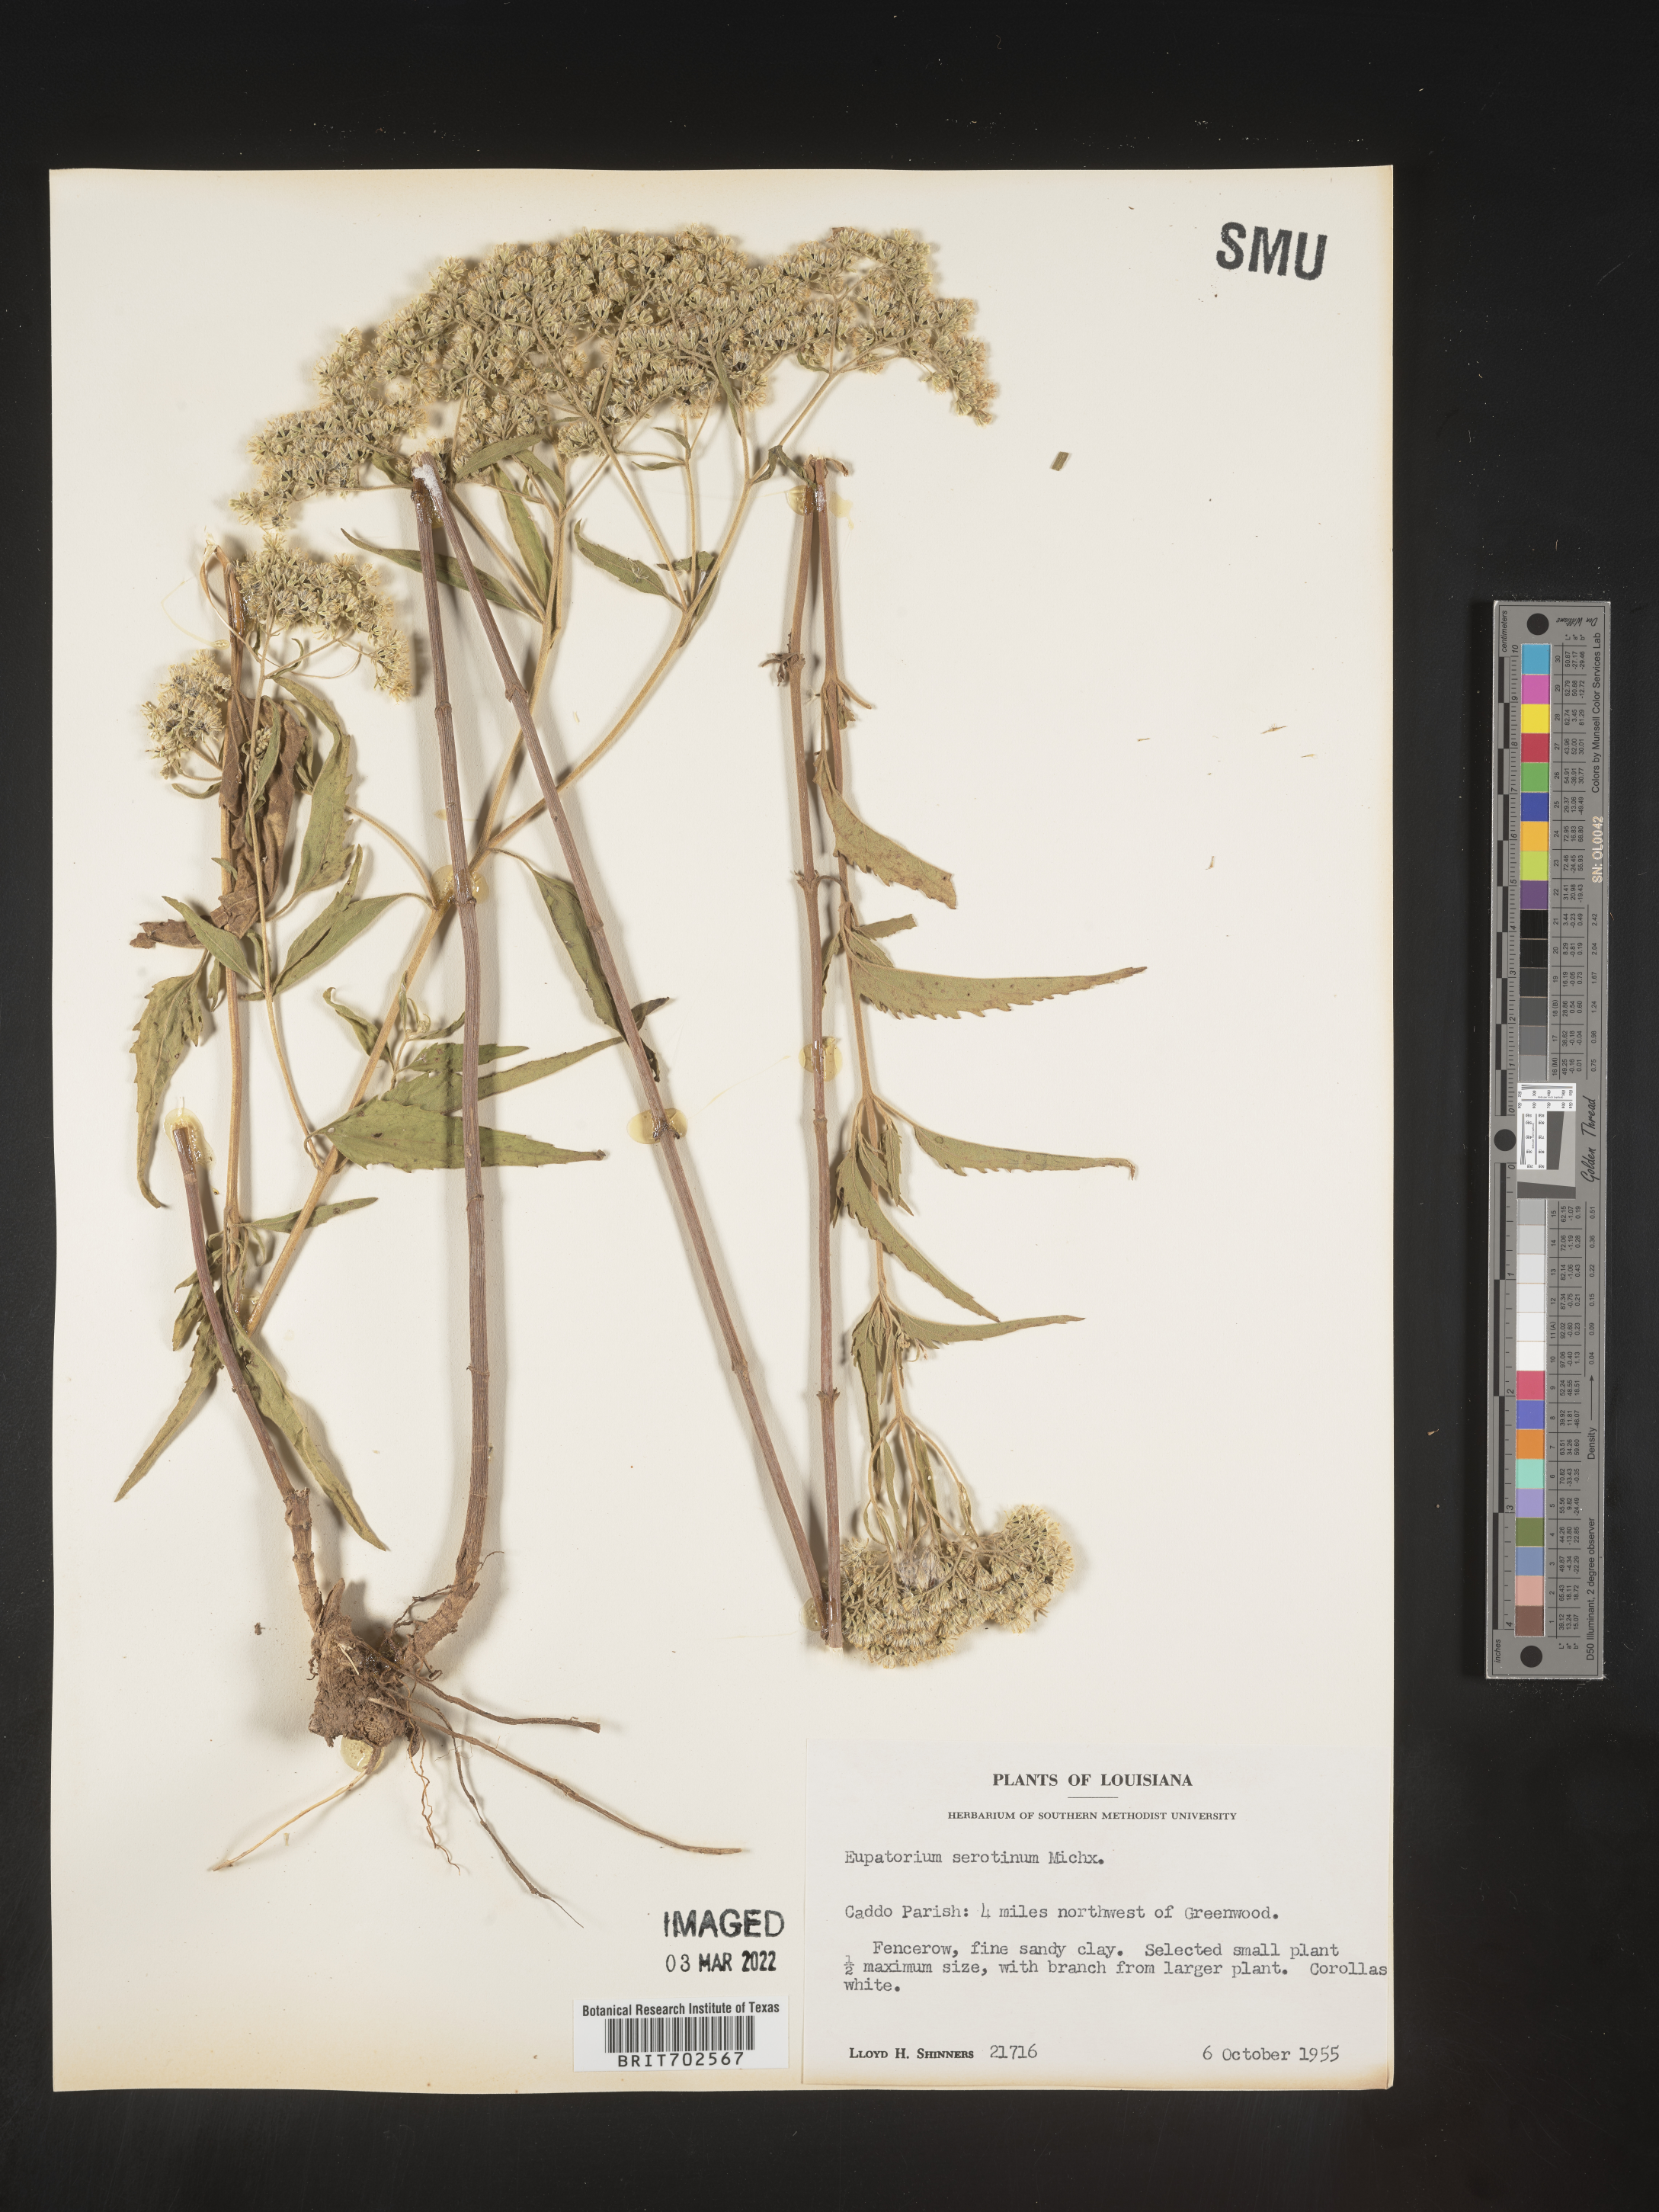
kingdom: Plantae
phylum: Tracheophyta
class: Magnoliopsida
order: Asterales
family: Asteraceae
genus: Eupatorium
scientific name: Eupatorium serotinum
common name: Late boneset
